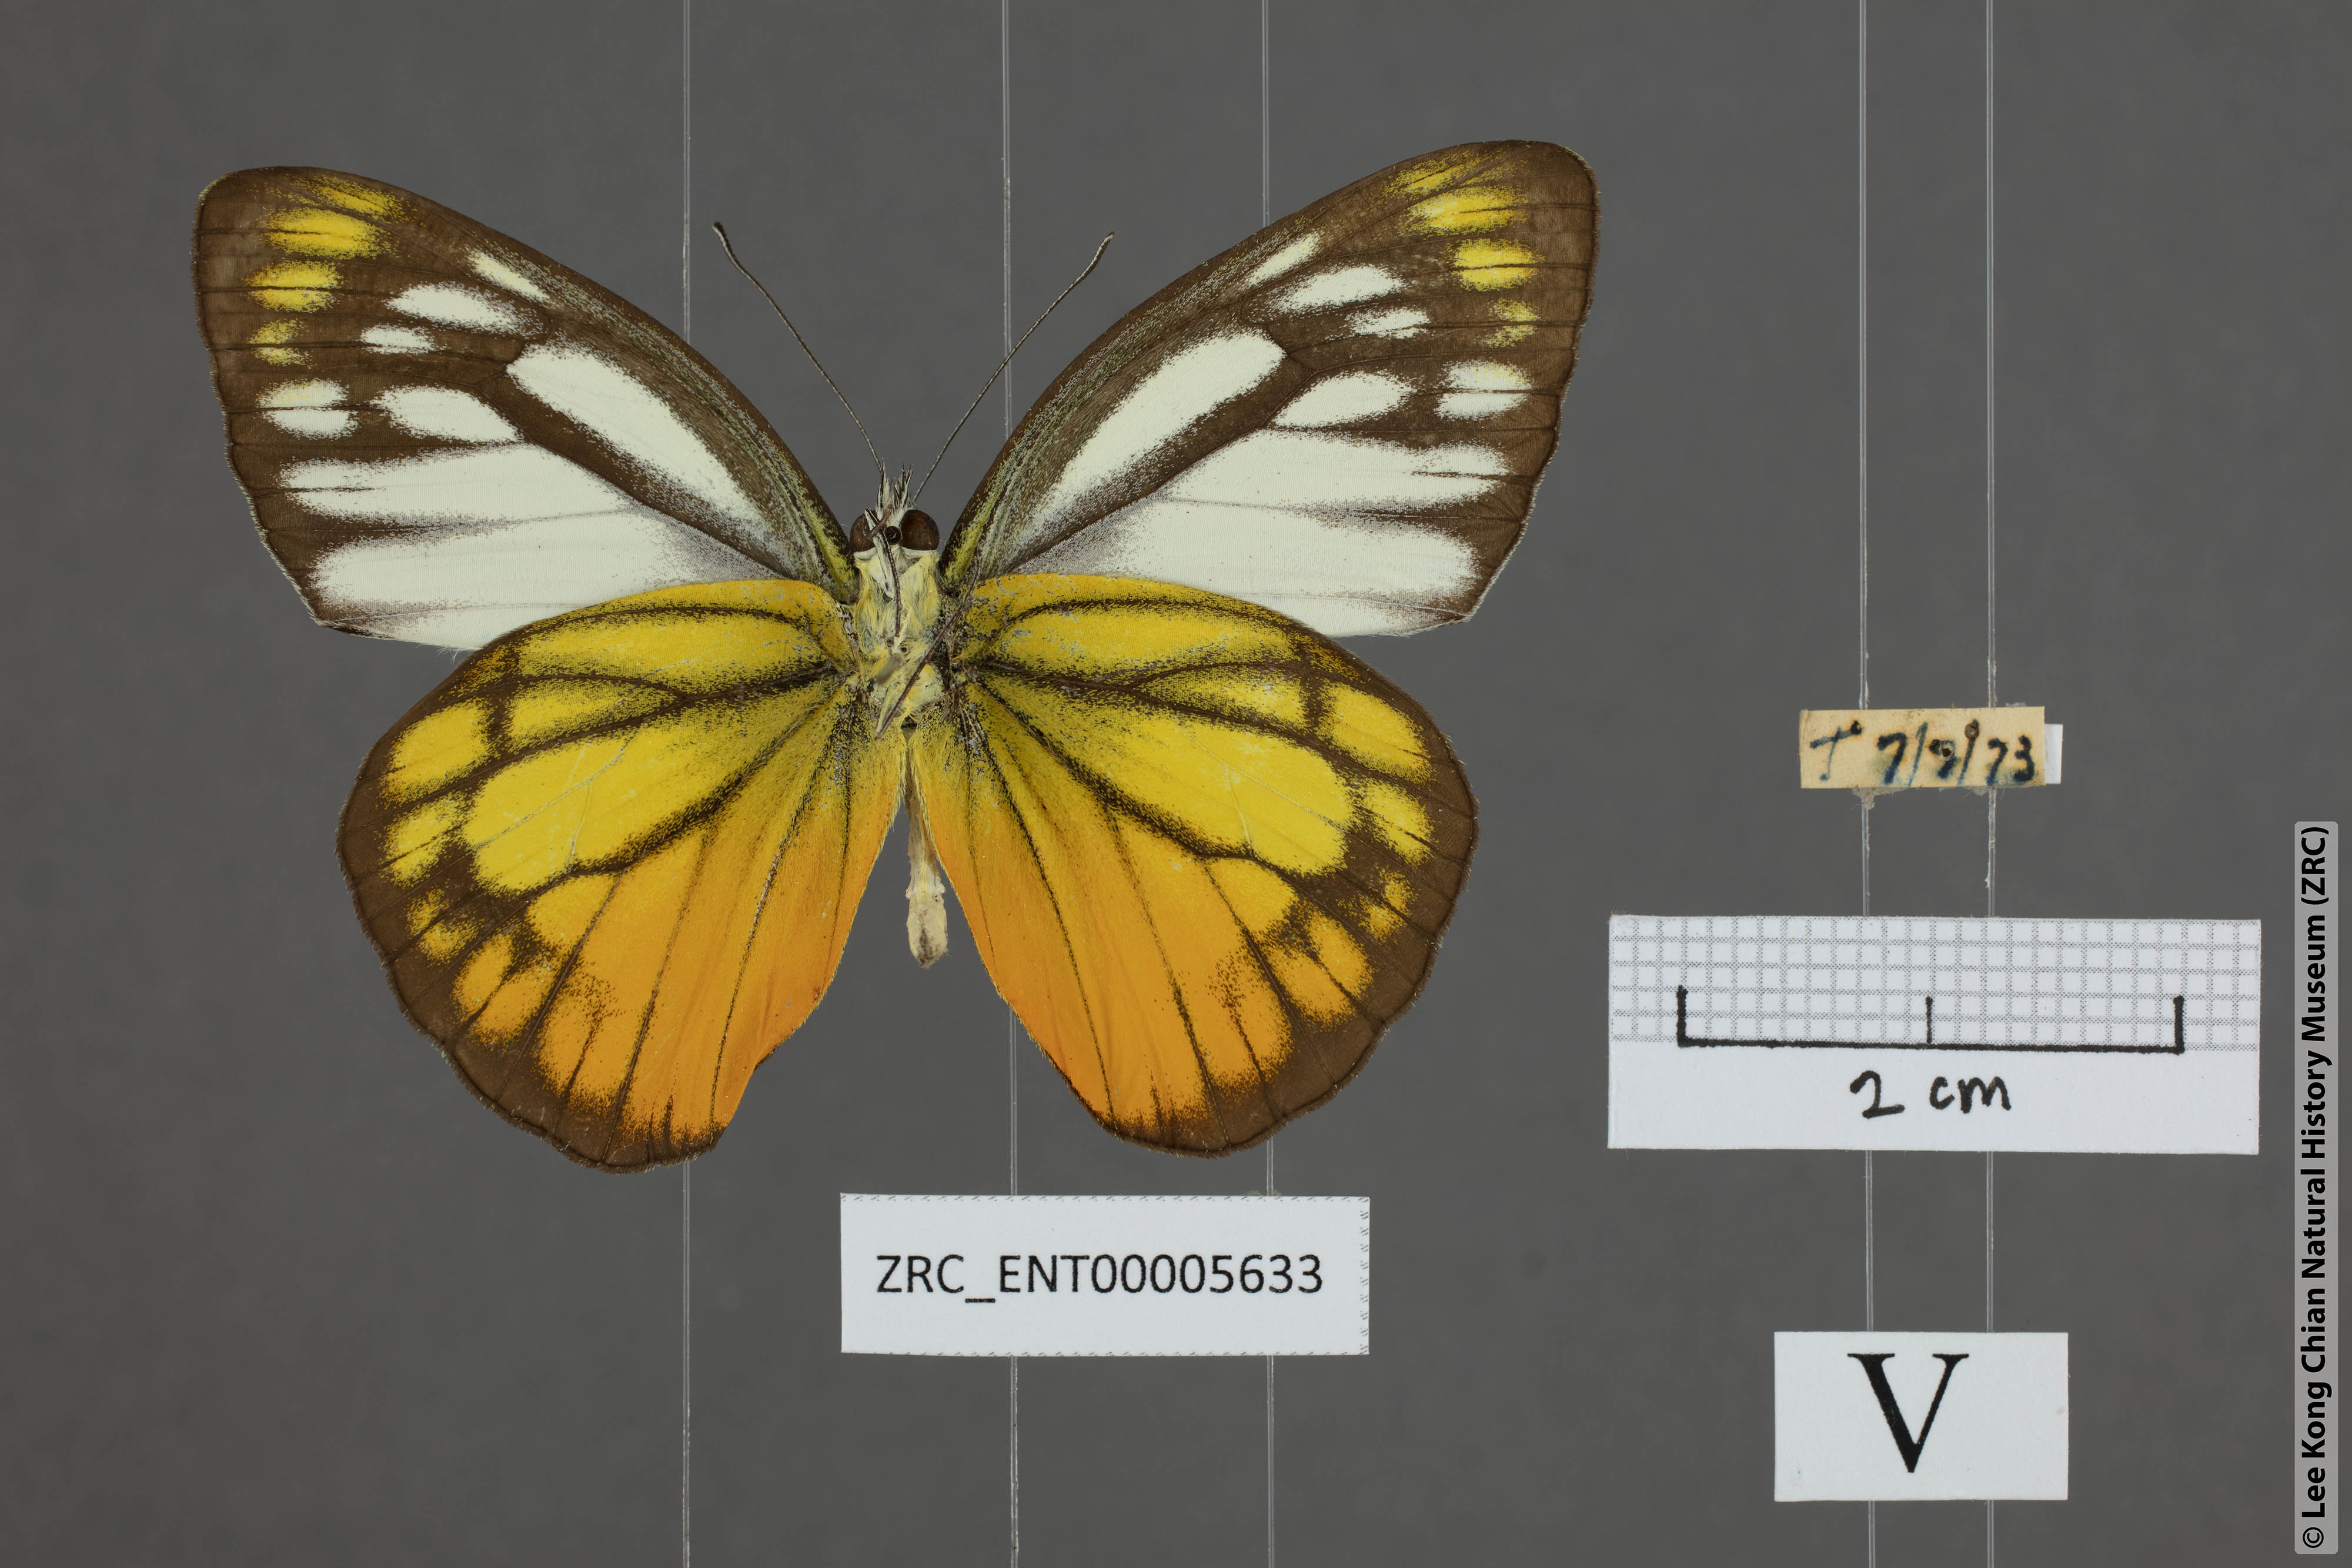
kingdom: Animalia
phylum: Arthropoda
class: Insecta
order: Lepidoptera
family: Pieridae
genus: Cepora
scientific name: Cepora iudith
